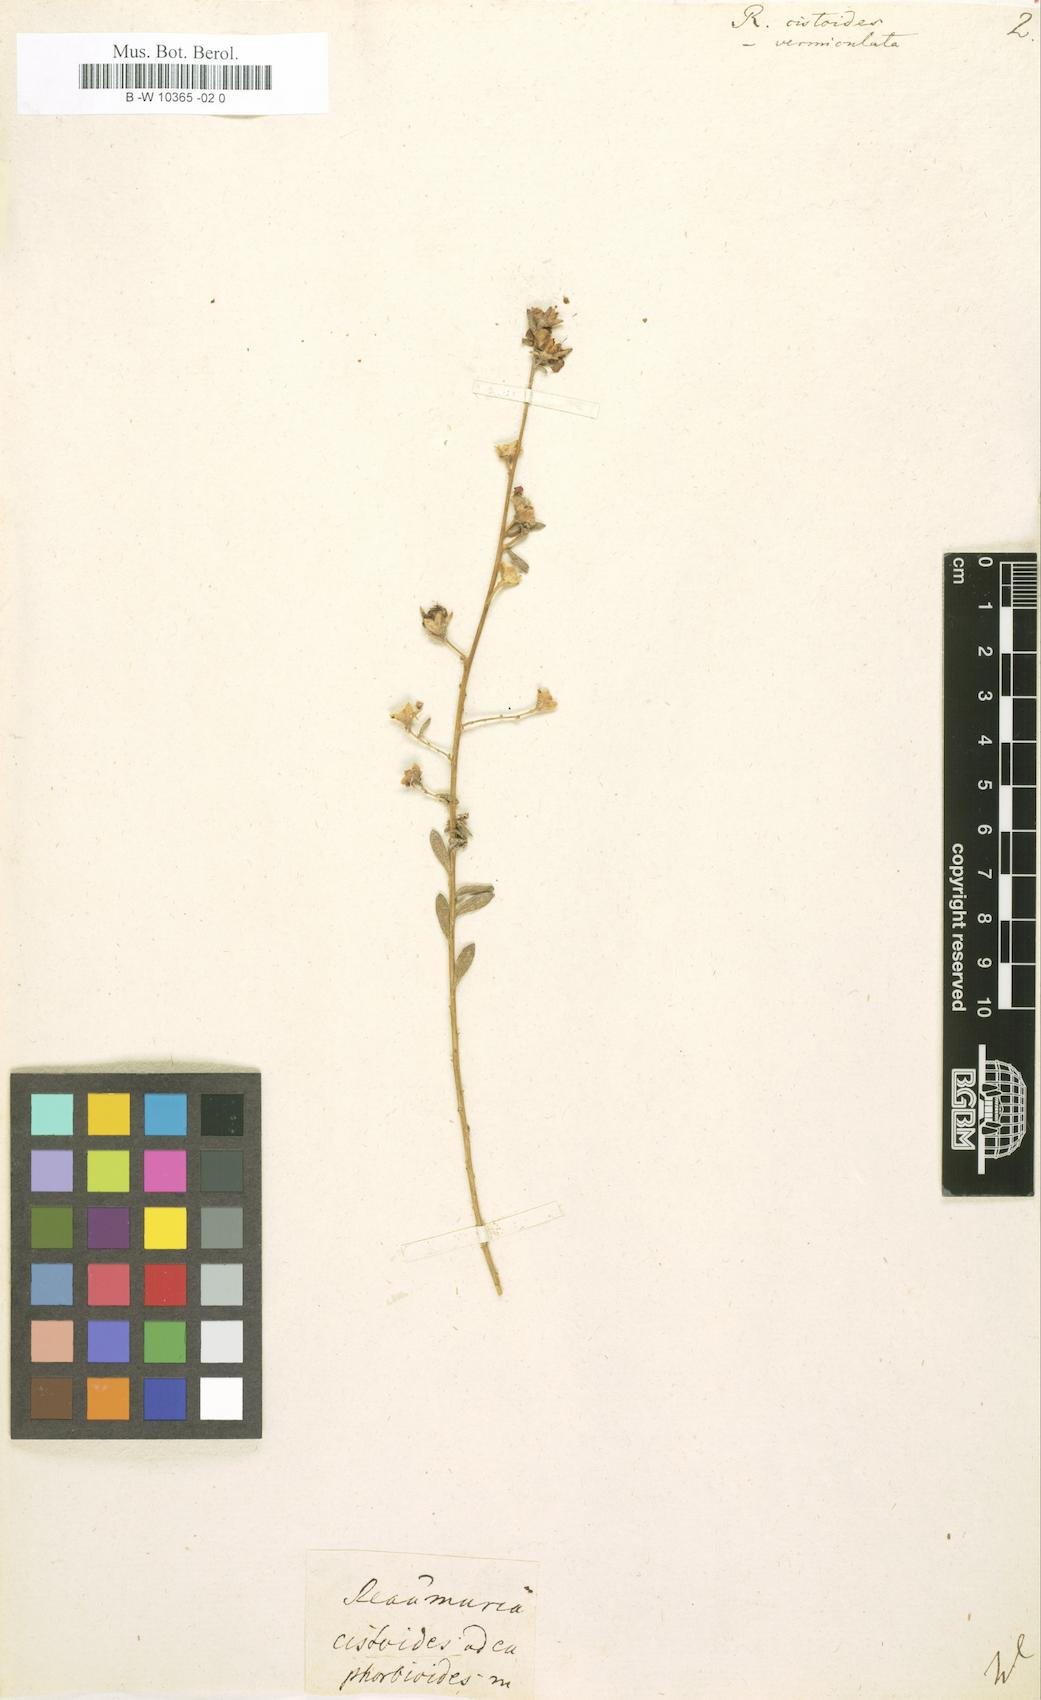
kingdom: Plantae
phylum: Tracheophyta
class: Magnoliopsida
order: Caryophyllales
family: Tamaricaceae
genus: Reaumuria
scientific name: Reaumuria alternifolia
